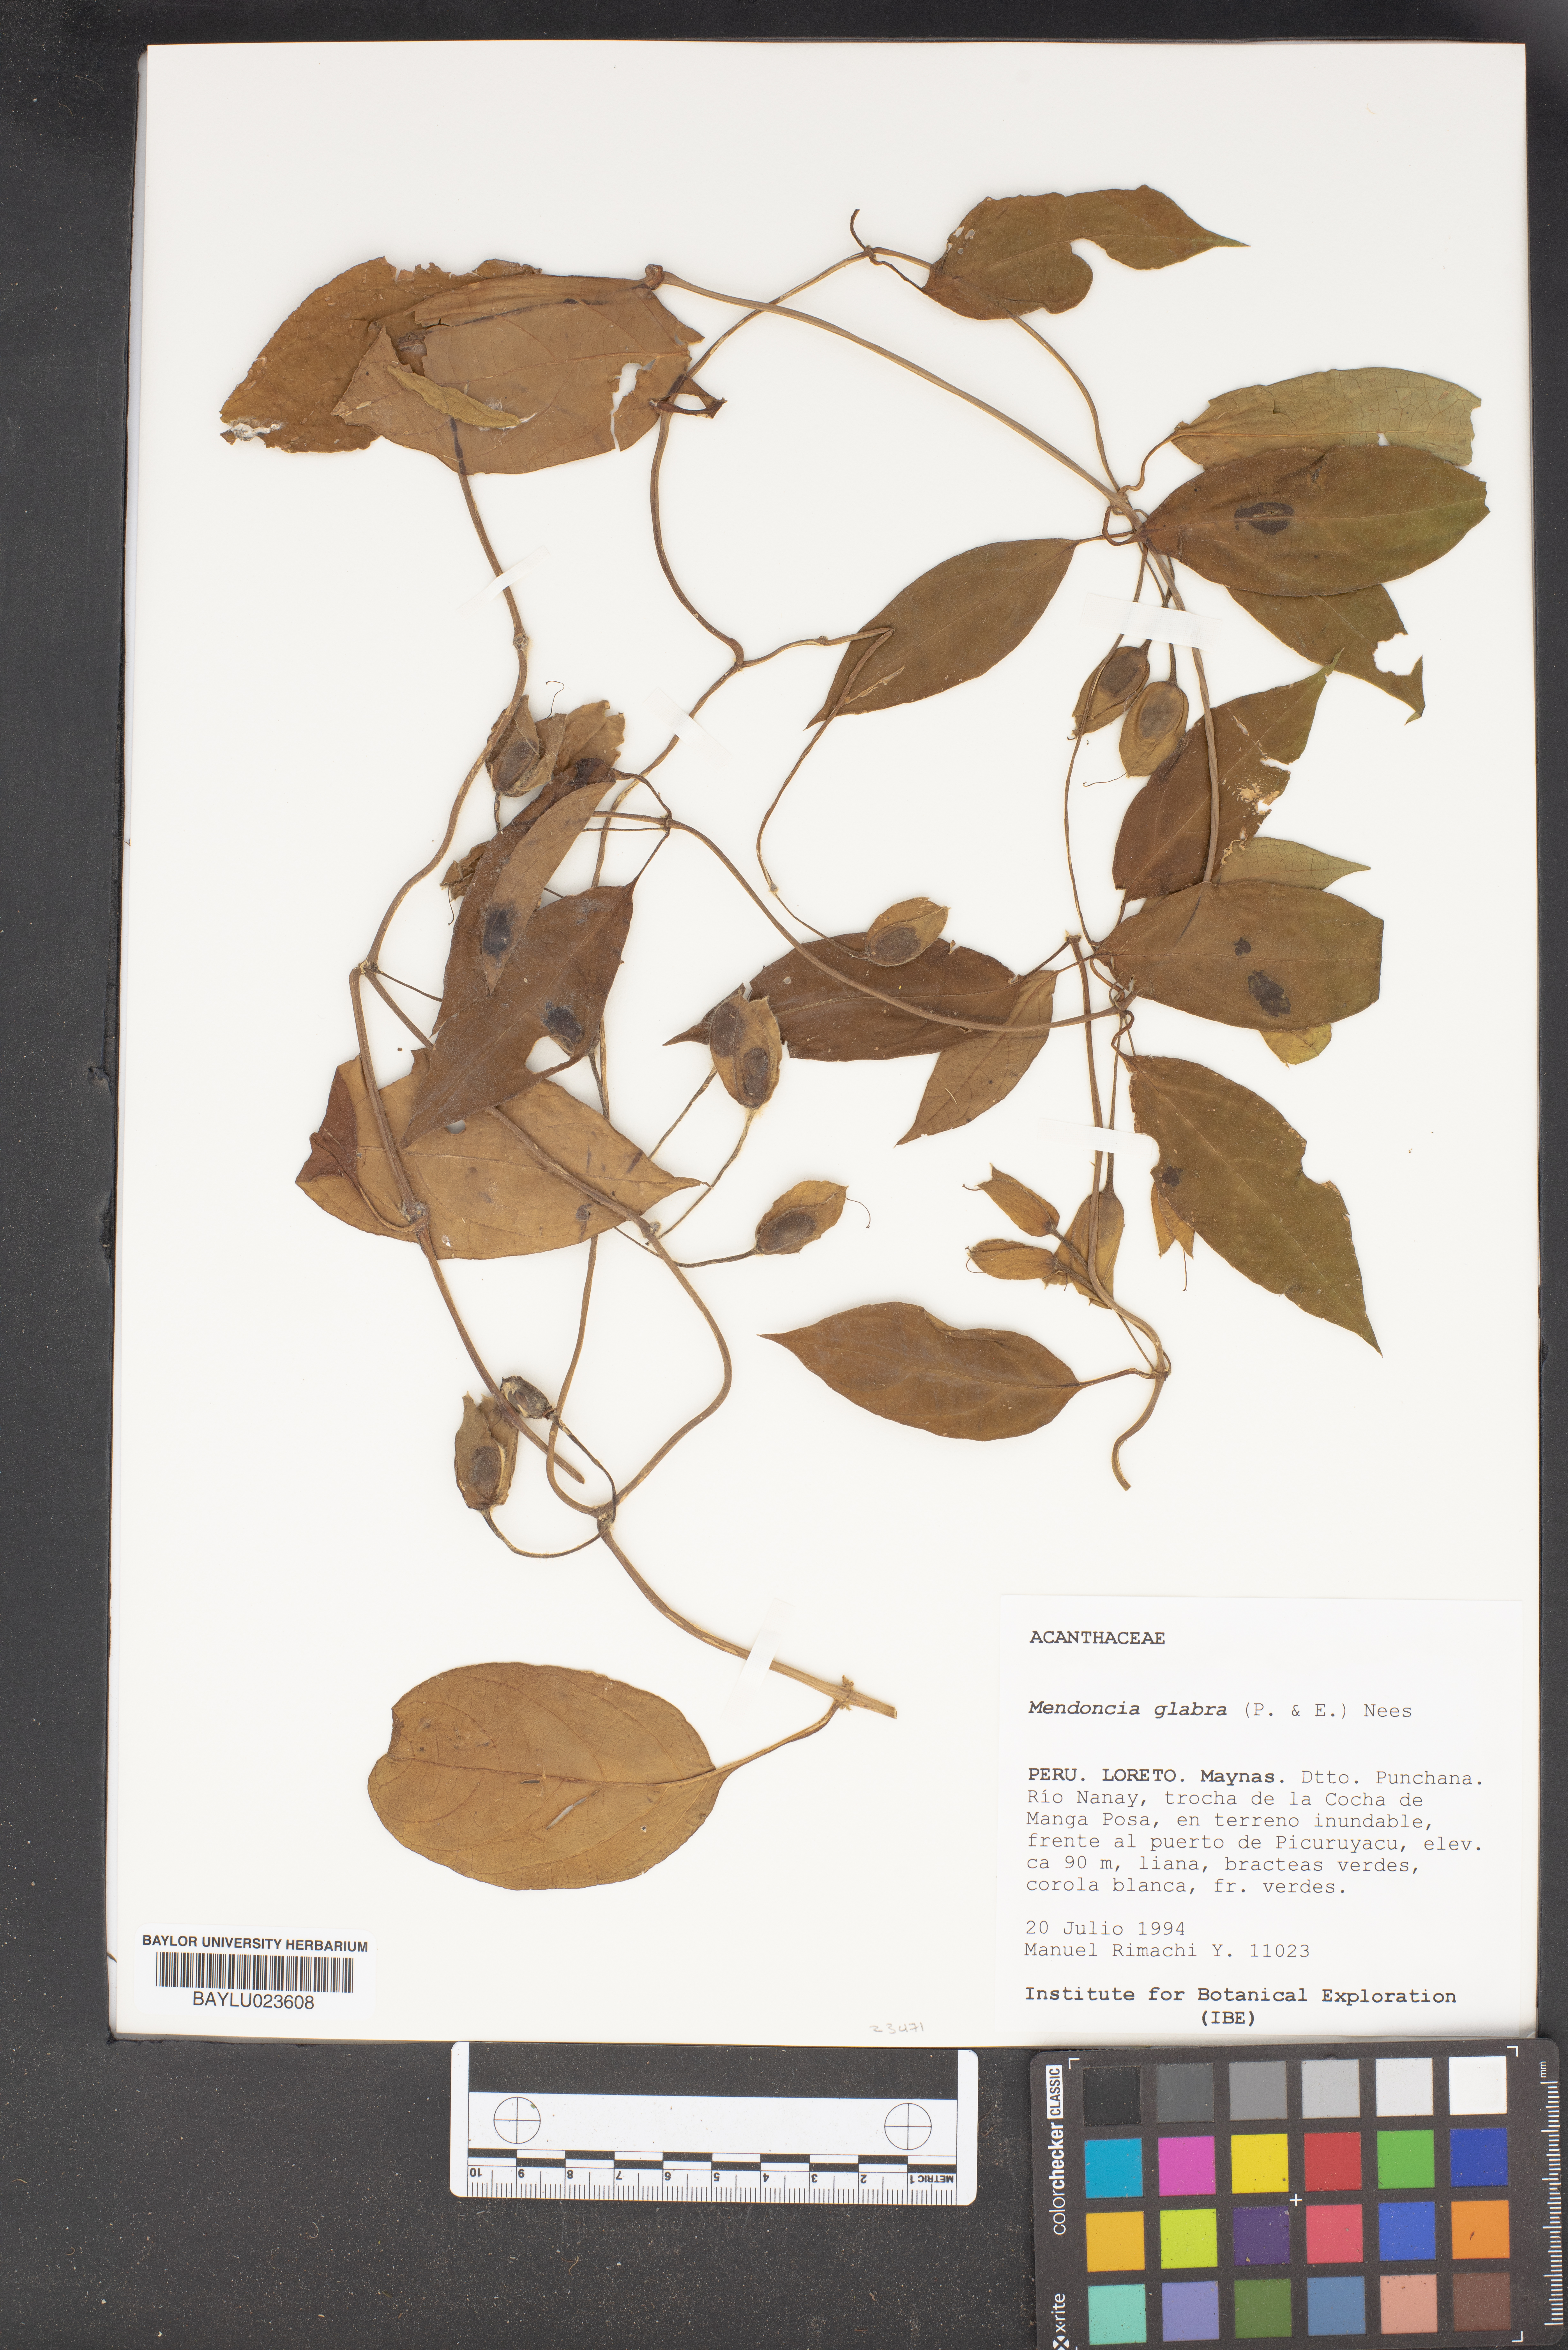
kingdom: Plantae
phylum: Tracheophyta
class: Magnoliopsida
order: Lamiales
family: Acanthaceae
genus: Mendoncia
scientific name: Mendoncia glabra
